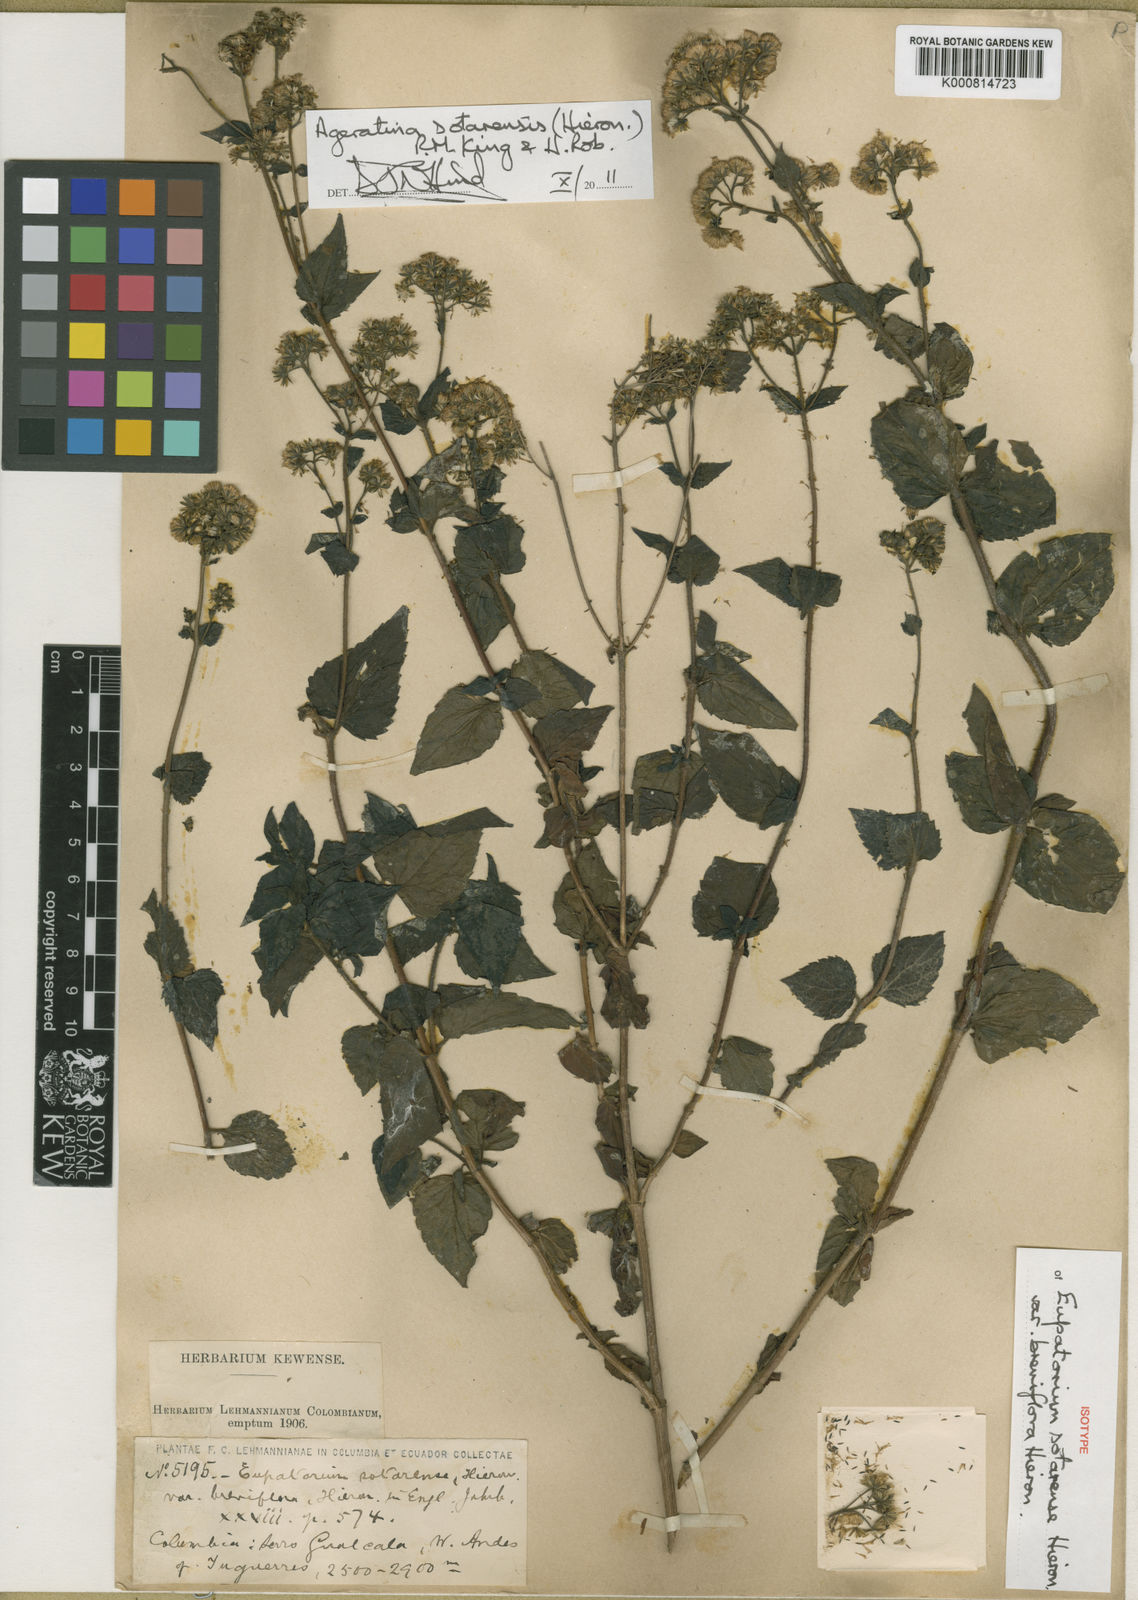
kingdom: Plantae
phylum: Tracheophyta
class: Magnoliopsida
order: Asterales
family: Asteraceae
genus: Ageratina
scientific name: Ageratina sotarensis
